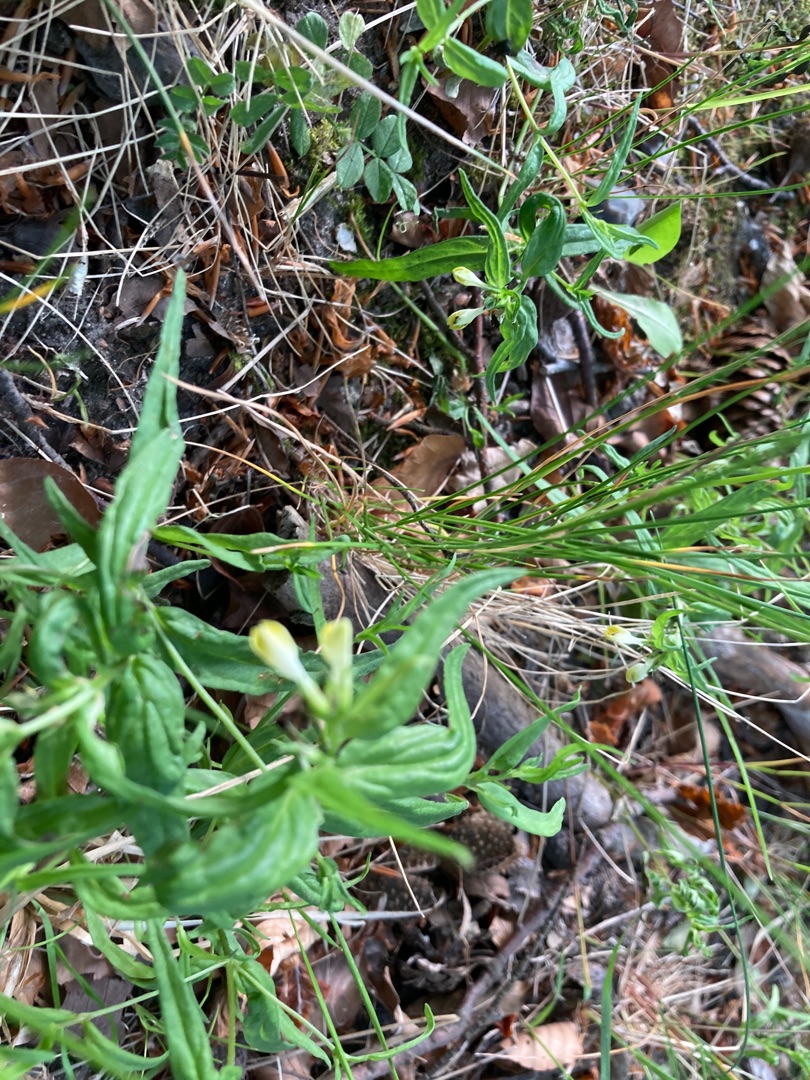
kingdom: Plantae
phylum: Tracheophyta
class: Magnoliopsida
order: Lamiales
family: Orobanchaceae
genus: Melampyrum
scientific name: Melampyrum pratense
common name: Almindelig kohvede
